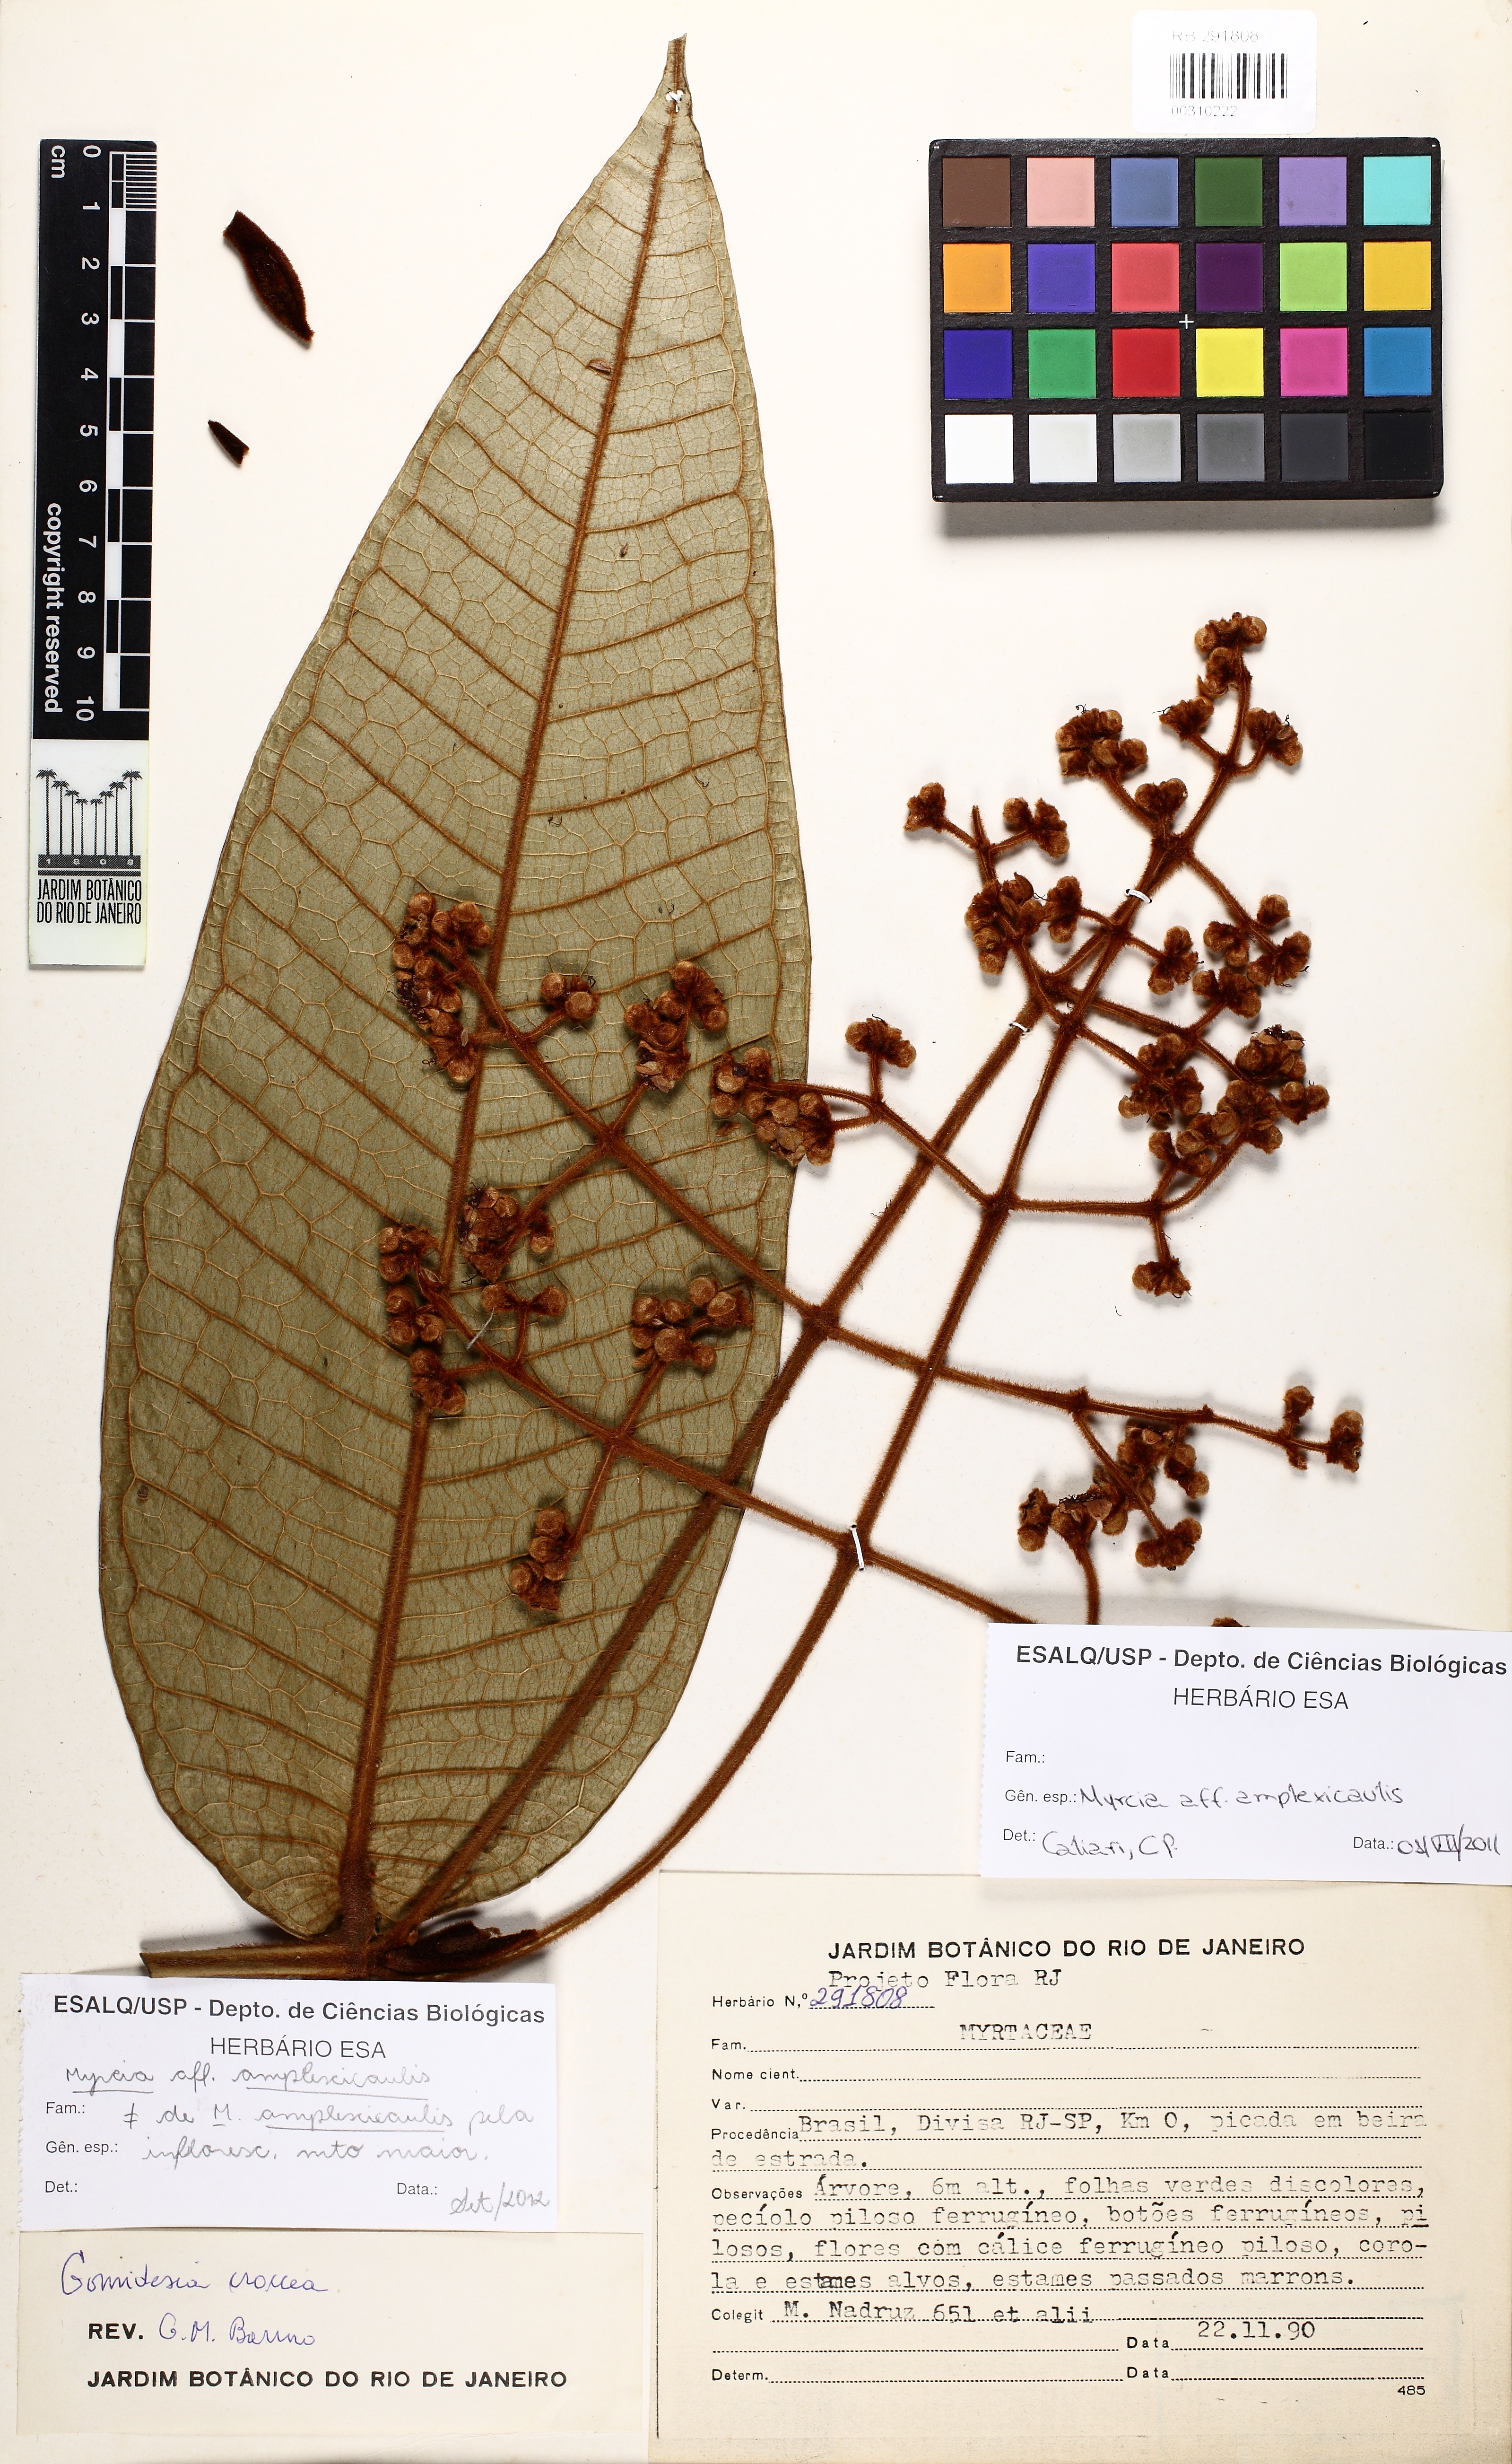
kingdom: Plantae
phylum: Tracheophyta
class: Magnoliopsida
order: Myrtales
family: Myrtaceae
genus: Myrcia
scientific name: Myrcia longipaniculata
